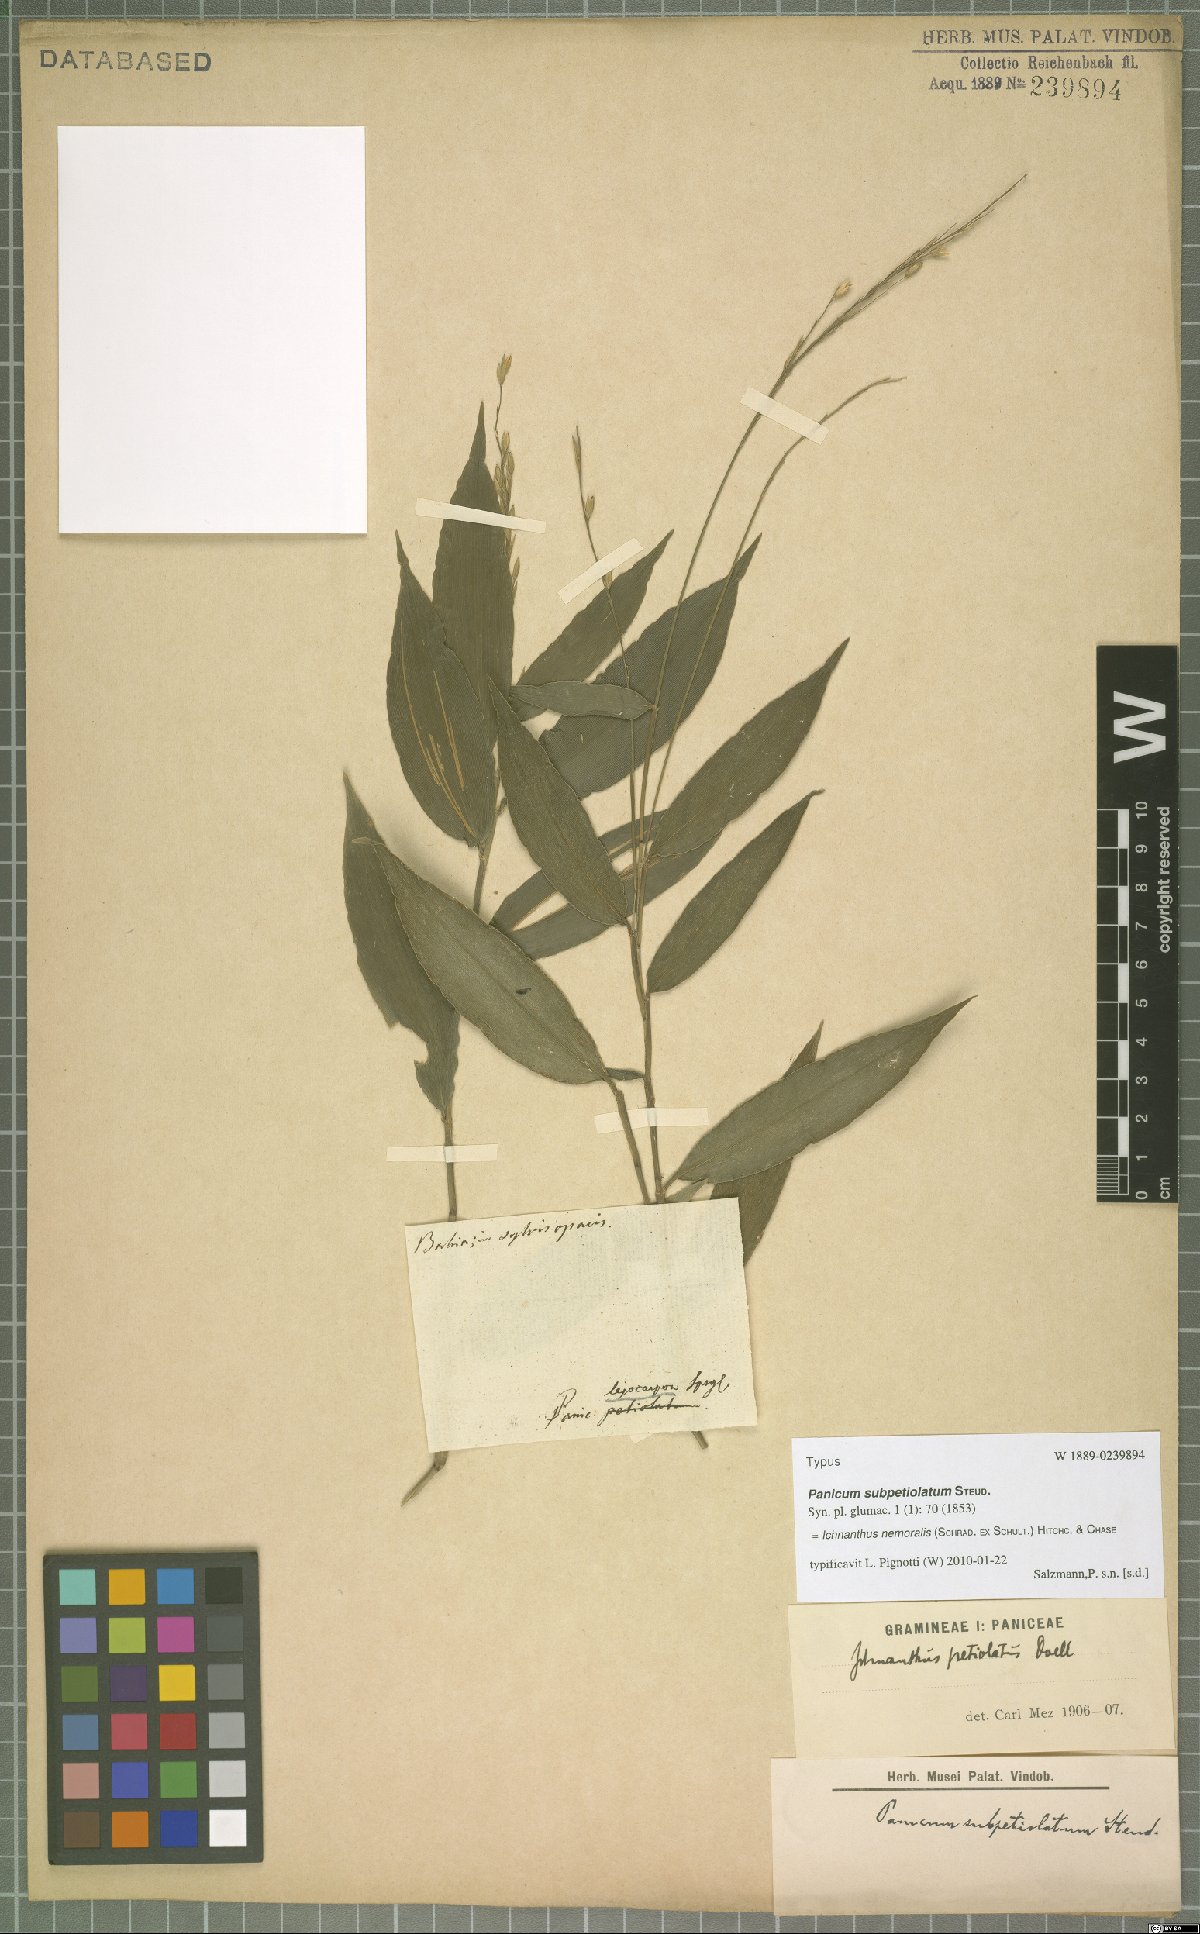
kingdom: Plantae
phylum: Tracheophyta
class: Liliopsida
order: Poales
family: Poaceae
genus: Ichnanthus
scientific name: Ichnanthus nemoralis
